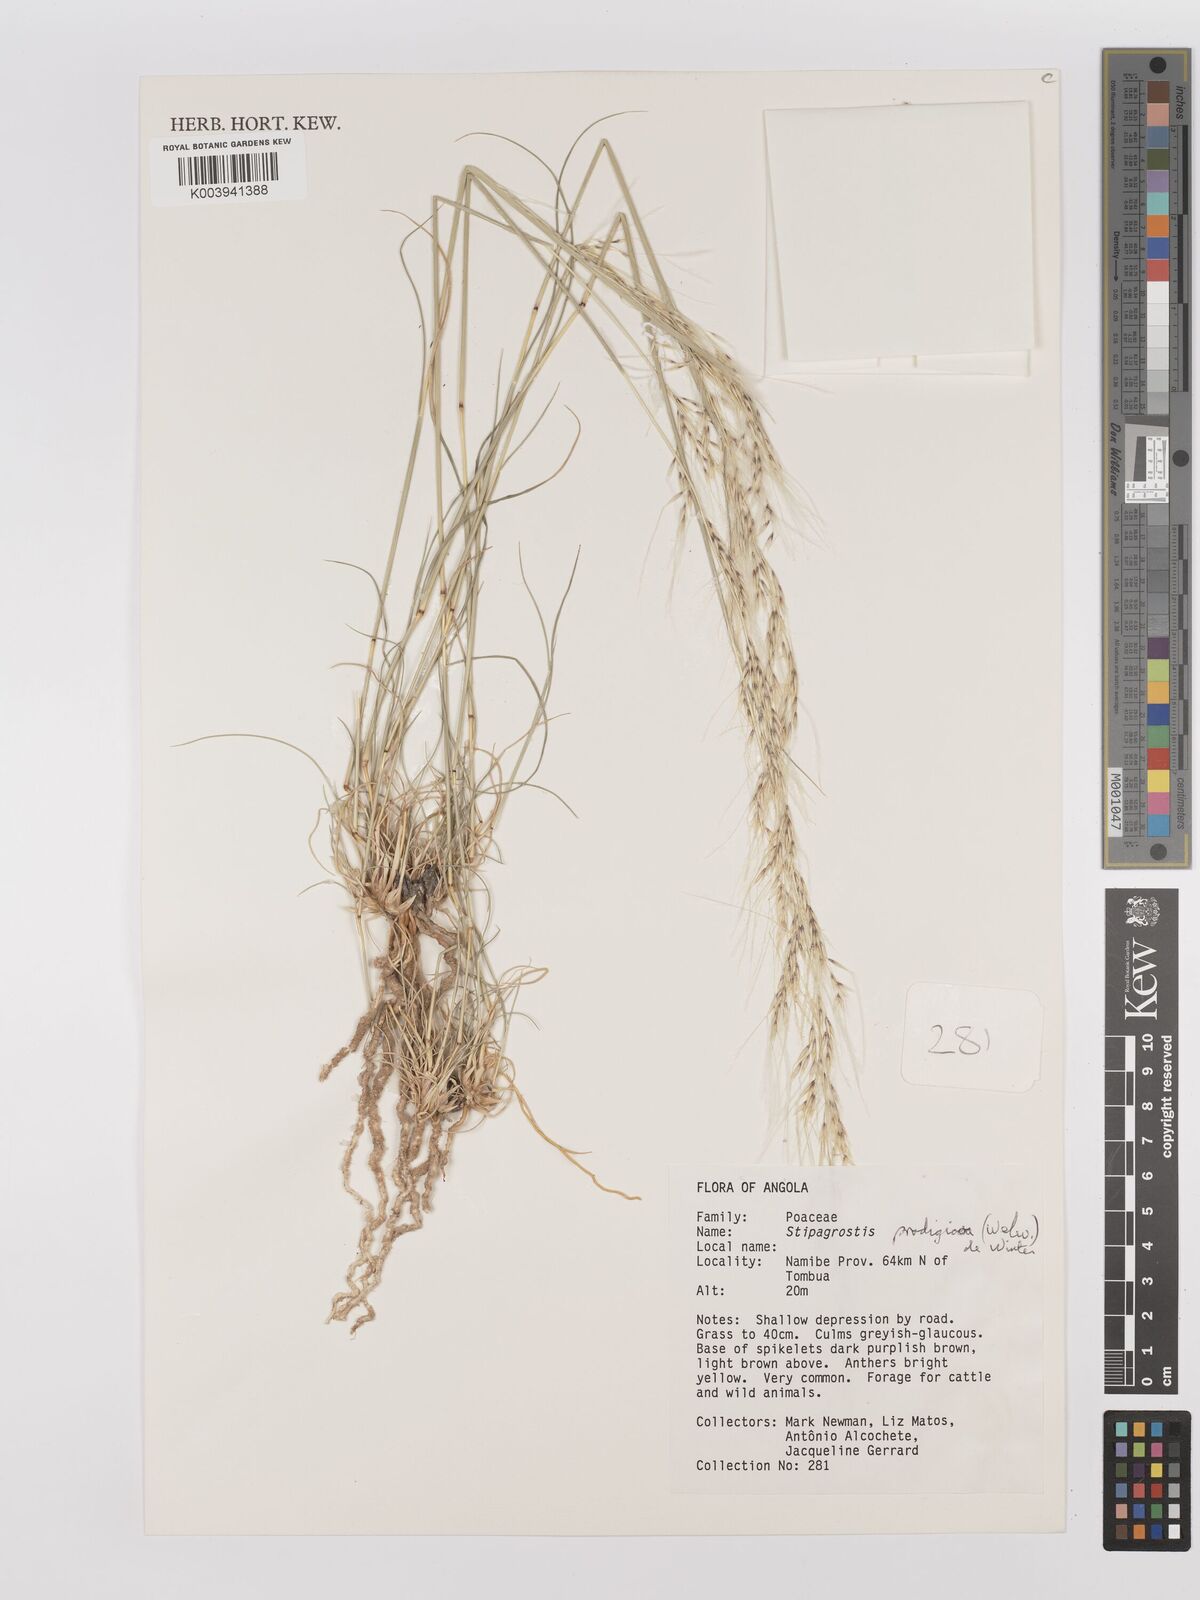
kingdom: Plantae
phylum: Tracheophyta
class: Liliopsida
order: Poales
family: Poaceae
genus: Stipagrostis
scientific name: Stipagrostis prodigiosa
